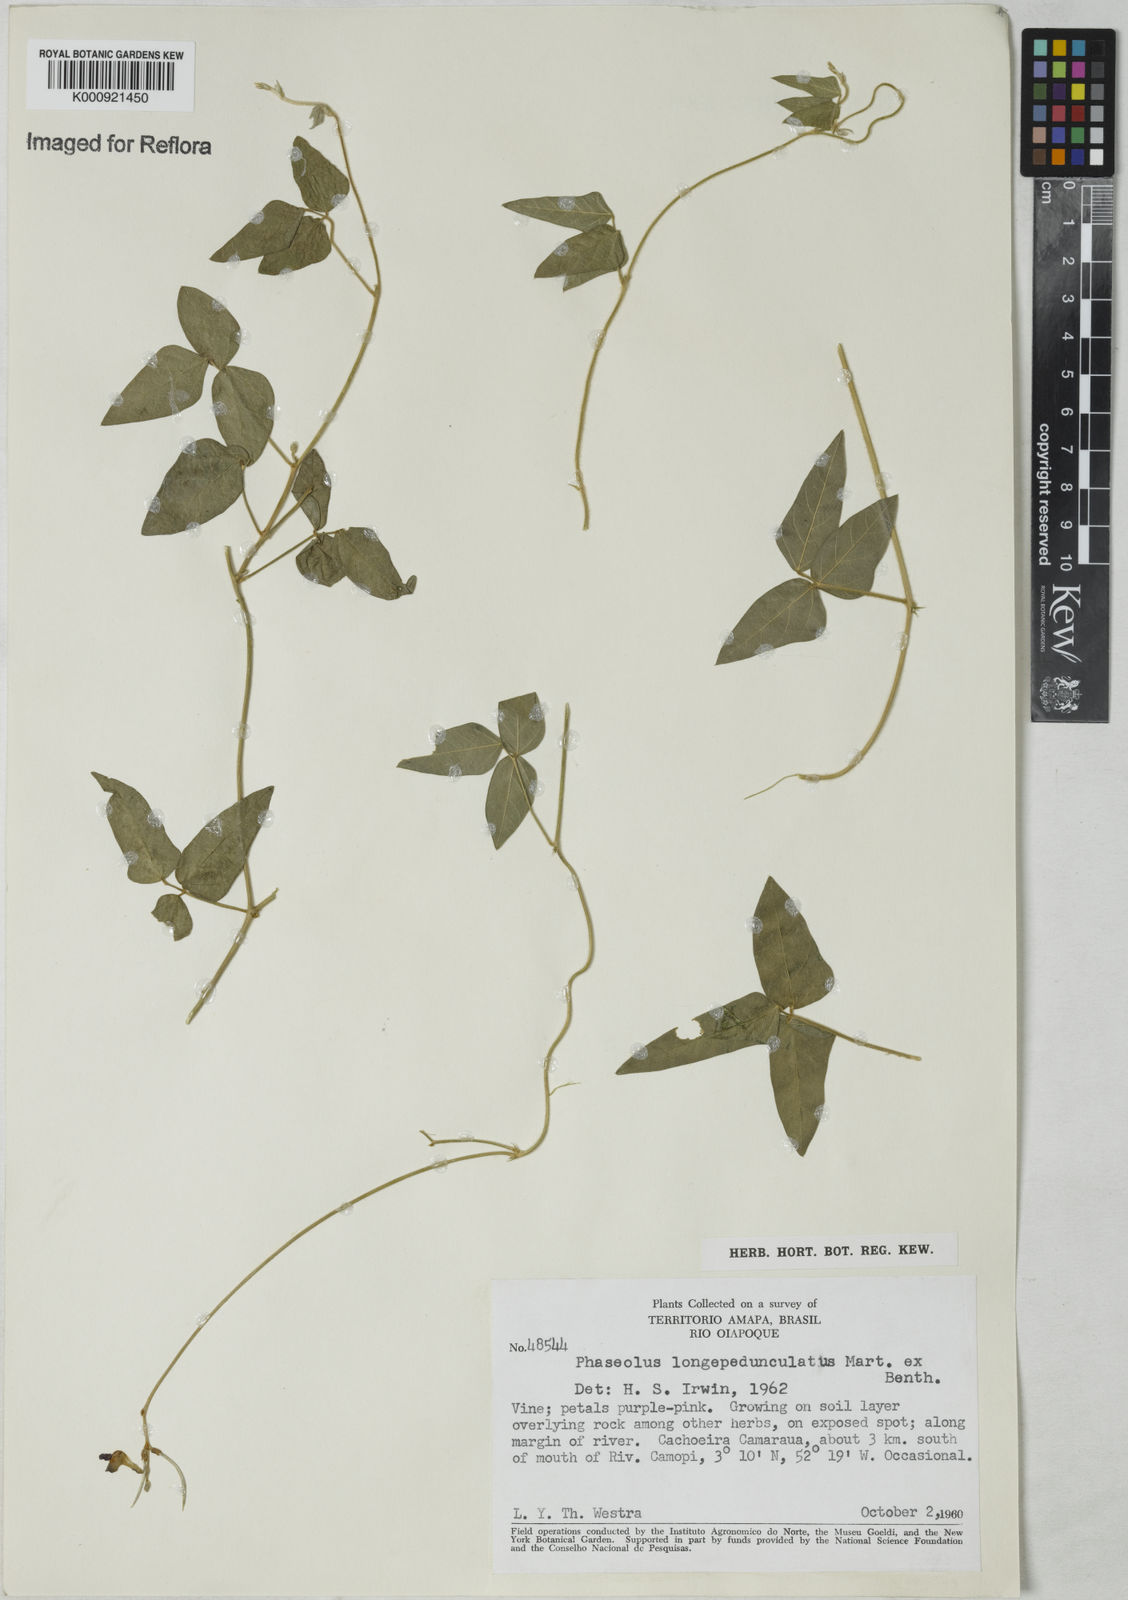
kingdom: Plantae
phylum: Tracheophyta
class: Magnoliopsida
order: Fabales
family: Fabaceae
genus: Macroptilium
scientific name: Macroptilium
